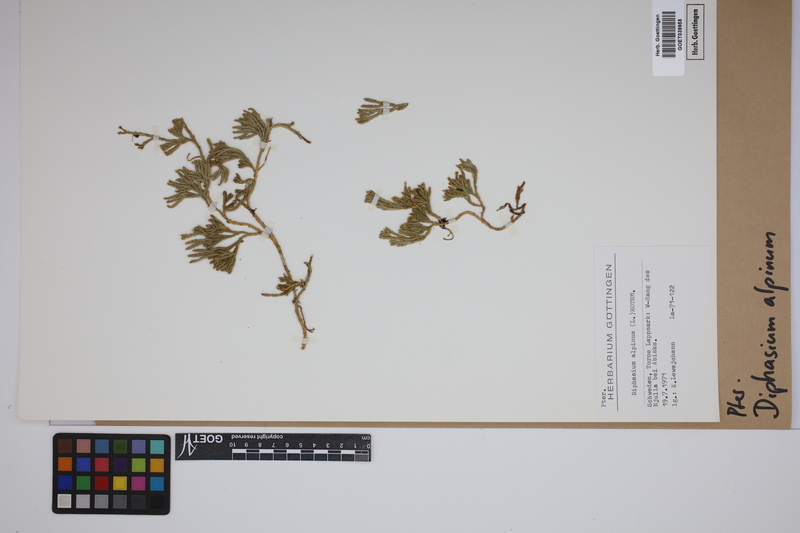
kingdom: Plantae
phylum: Tracheophyta
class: Lycopodiopsida
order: Lycopodiales
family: Lycopodiaceae
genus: Diphasiastrum
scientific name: Diphasiastrum alpinum
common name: Alpine clubmoss
